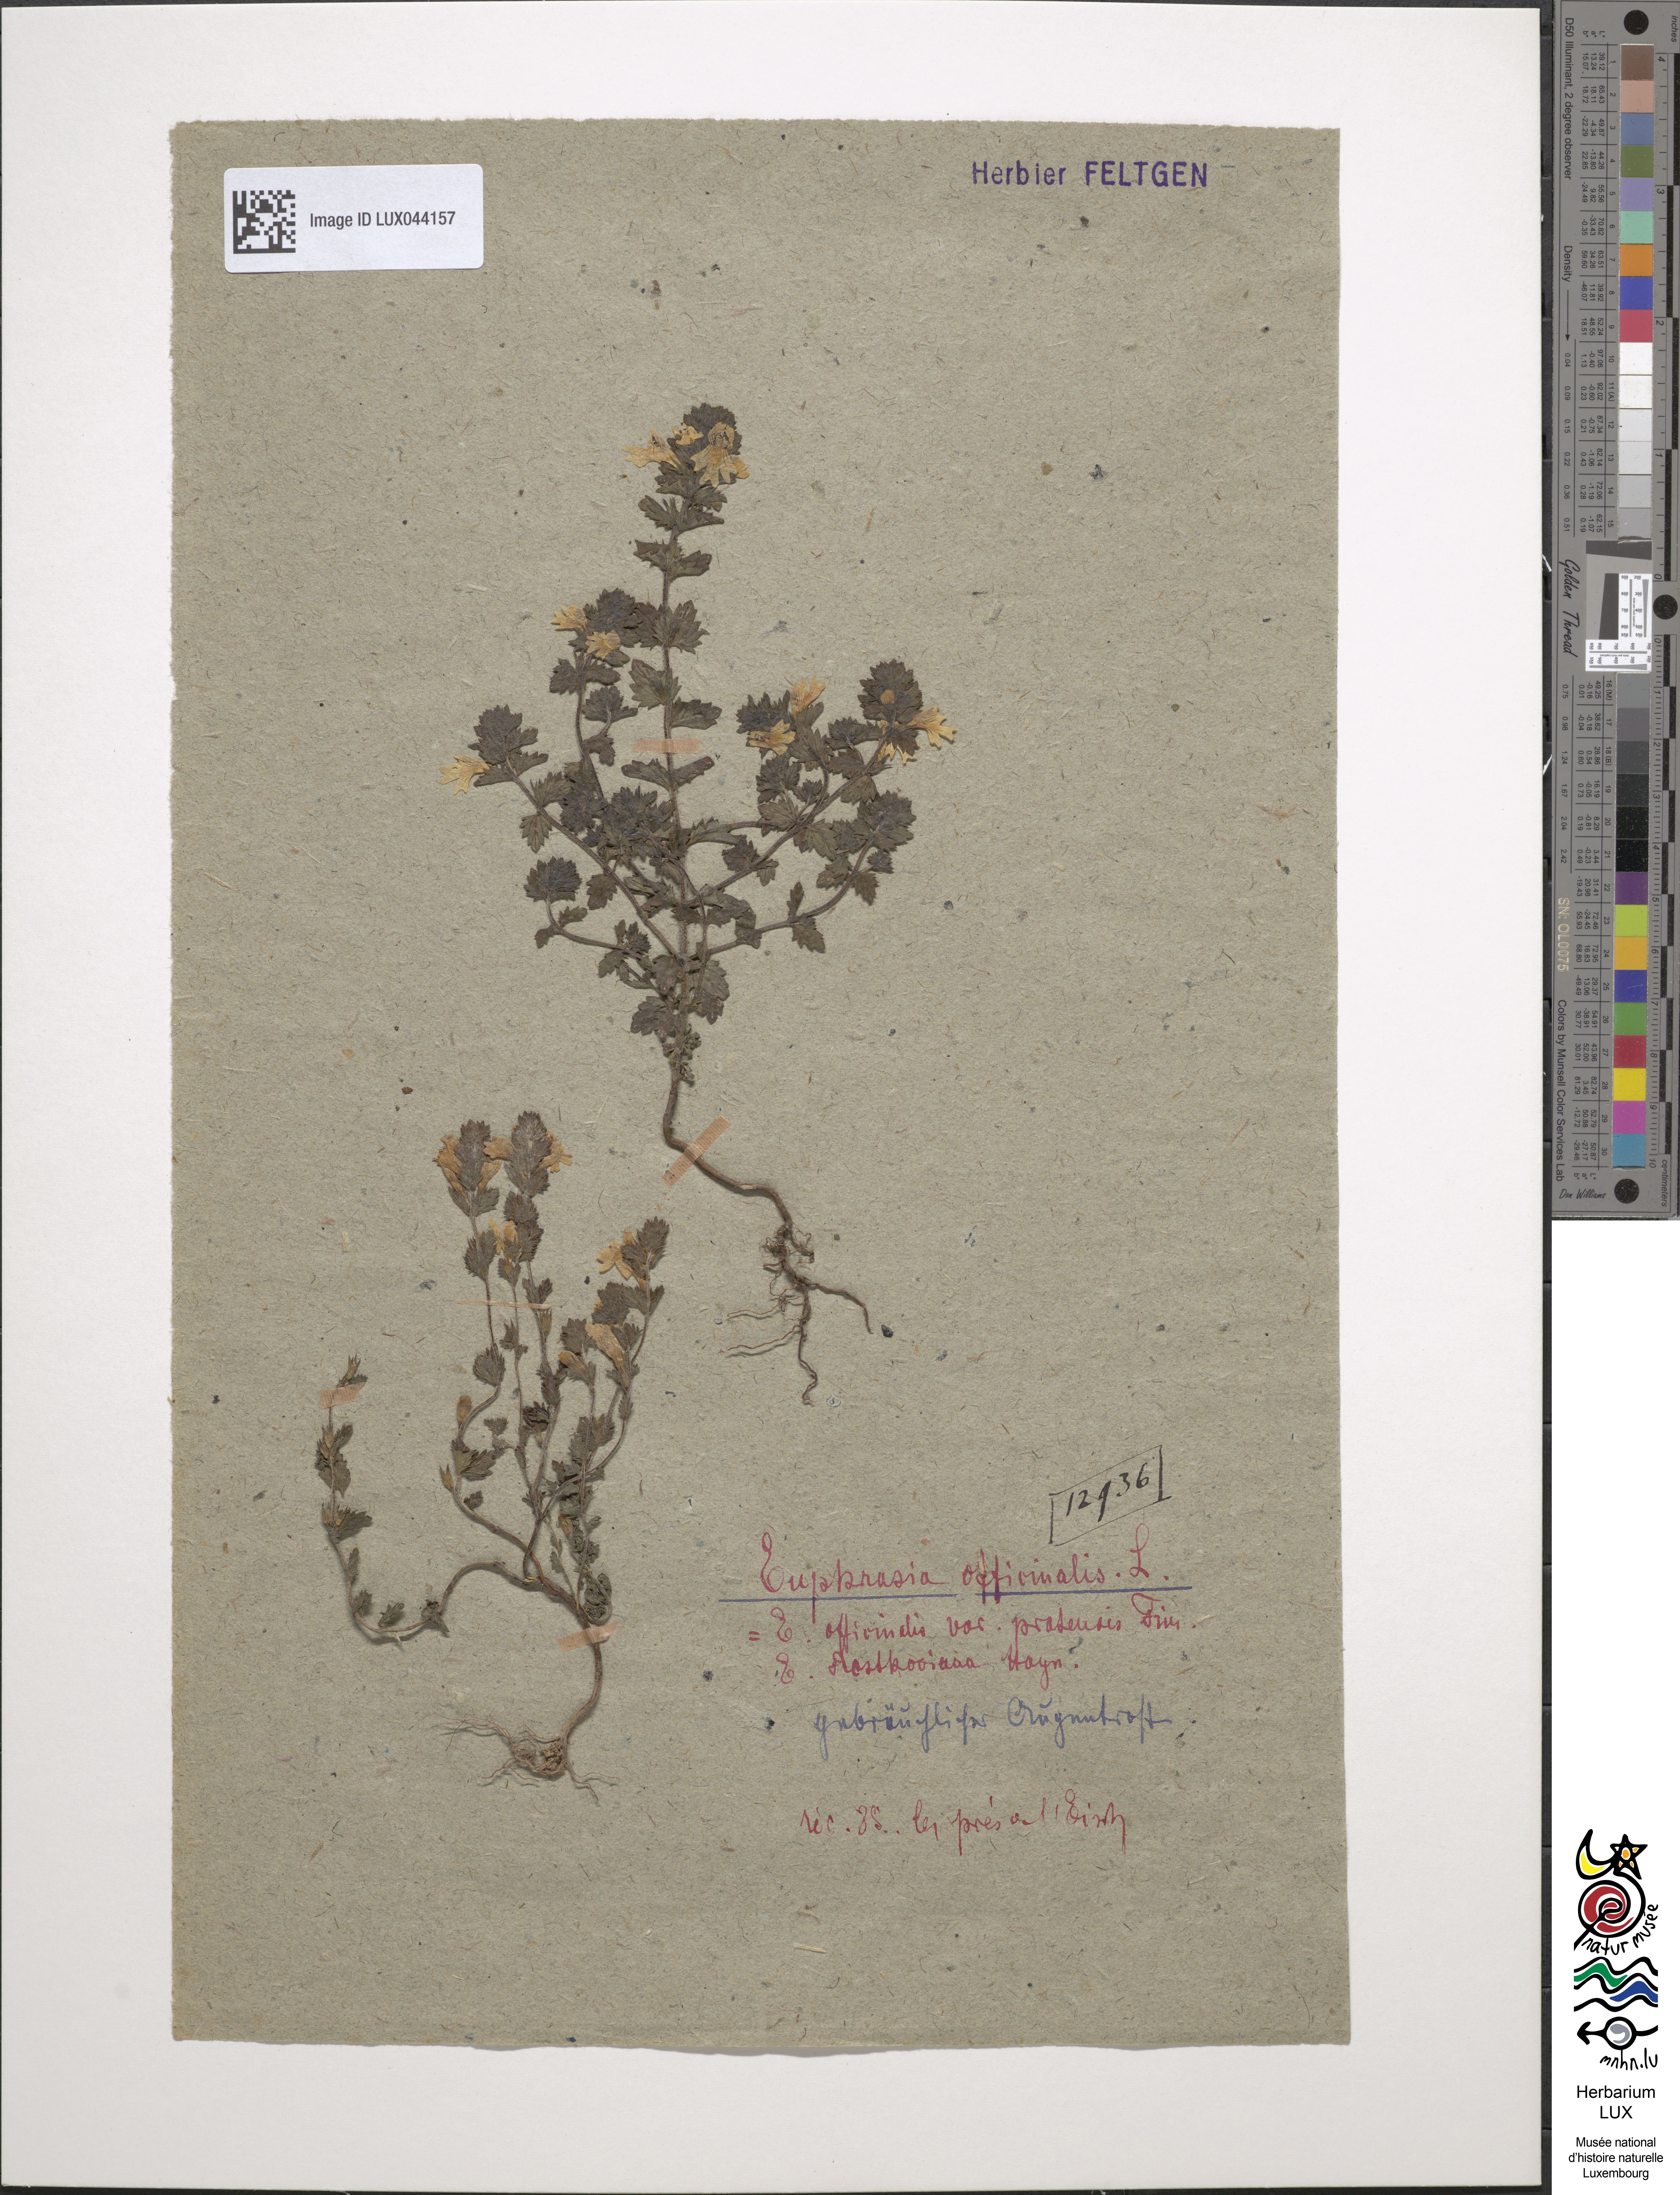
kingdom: Plantae
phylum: Tracheophyta
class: Magnoliopsida
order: Lamiales
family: Orobanchaceae
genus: Euphrasia
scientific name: Euphrasia officinalis
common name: Eyebright
